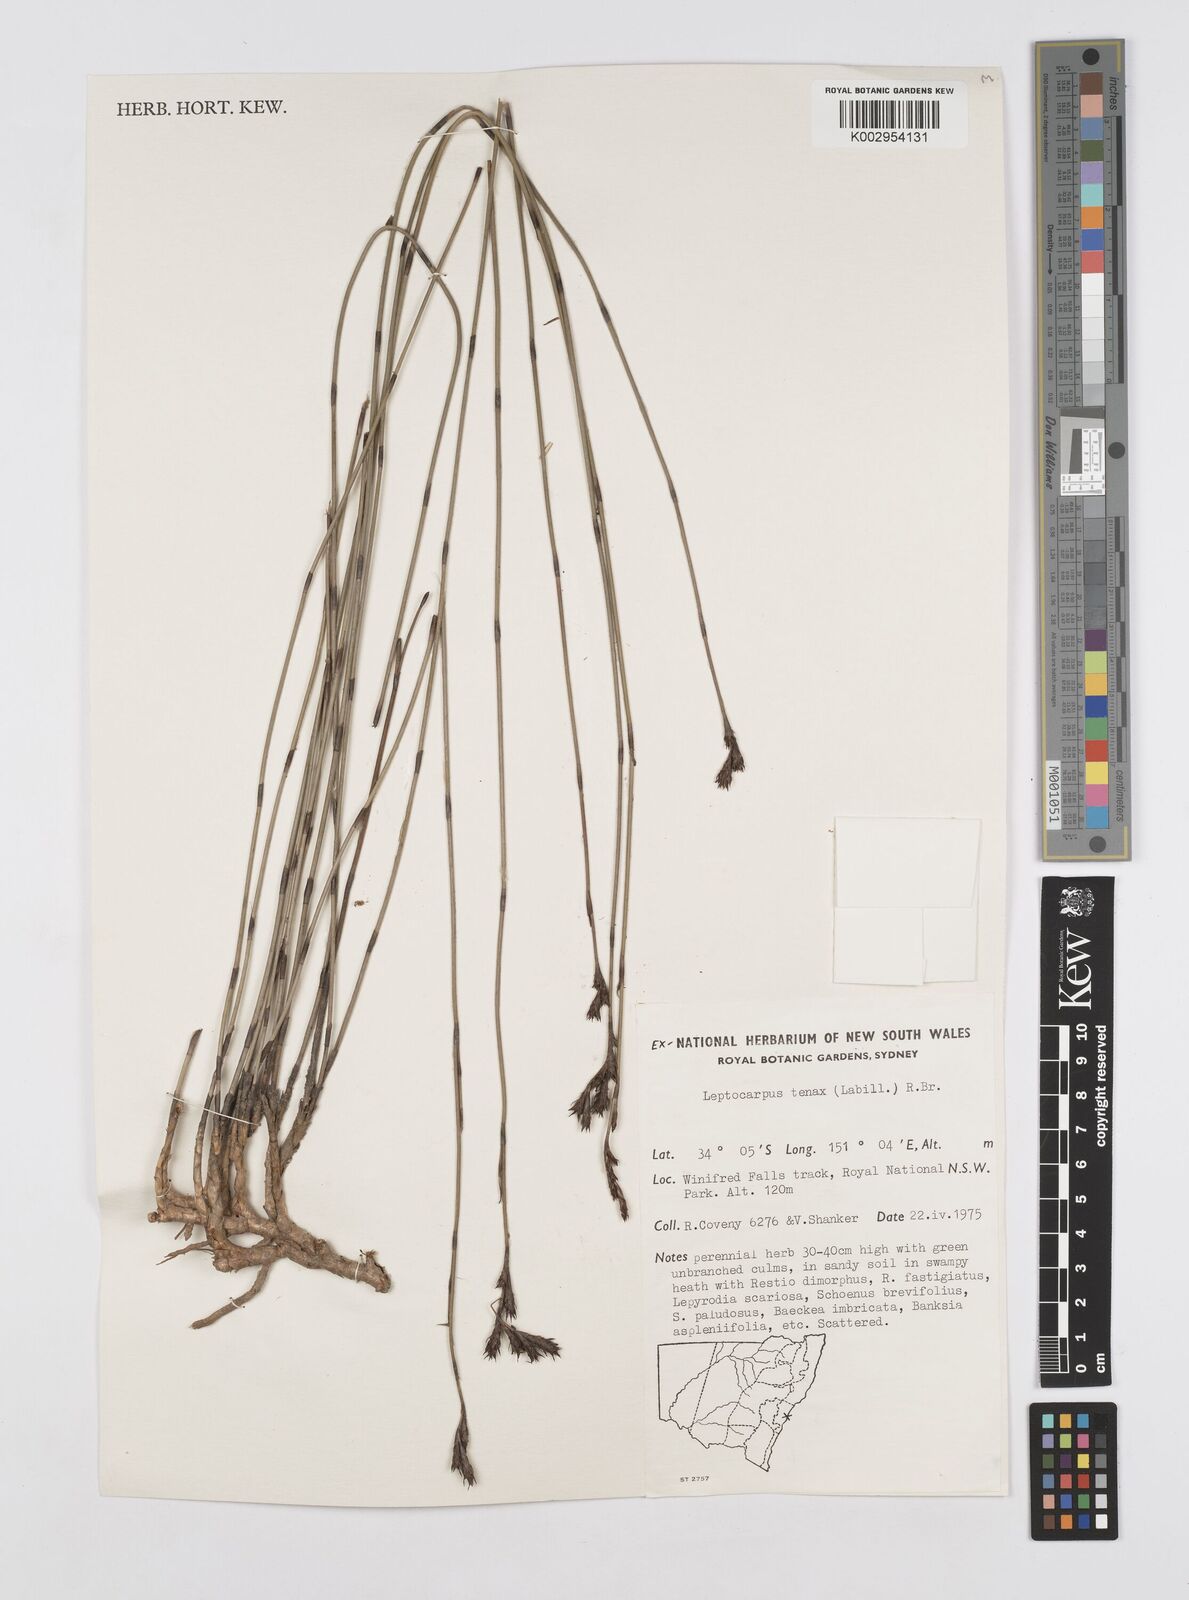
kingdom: Plantae
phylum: Tracheophyta
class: Liliopsida
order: Poales
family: Restionaceae
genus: Leptocarpus
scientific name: Leptocarpus tenax
